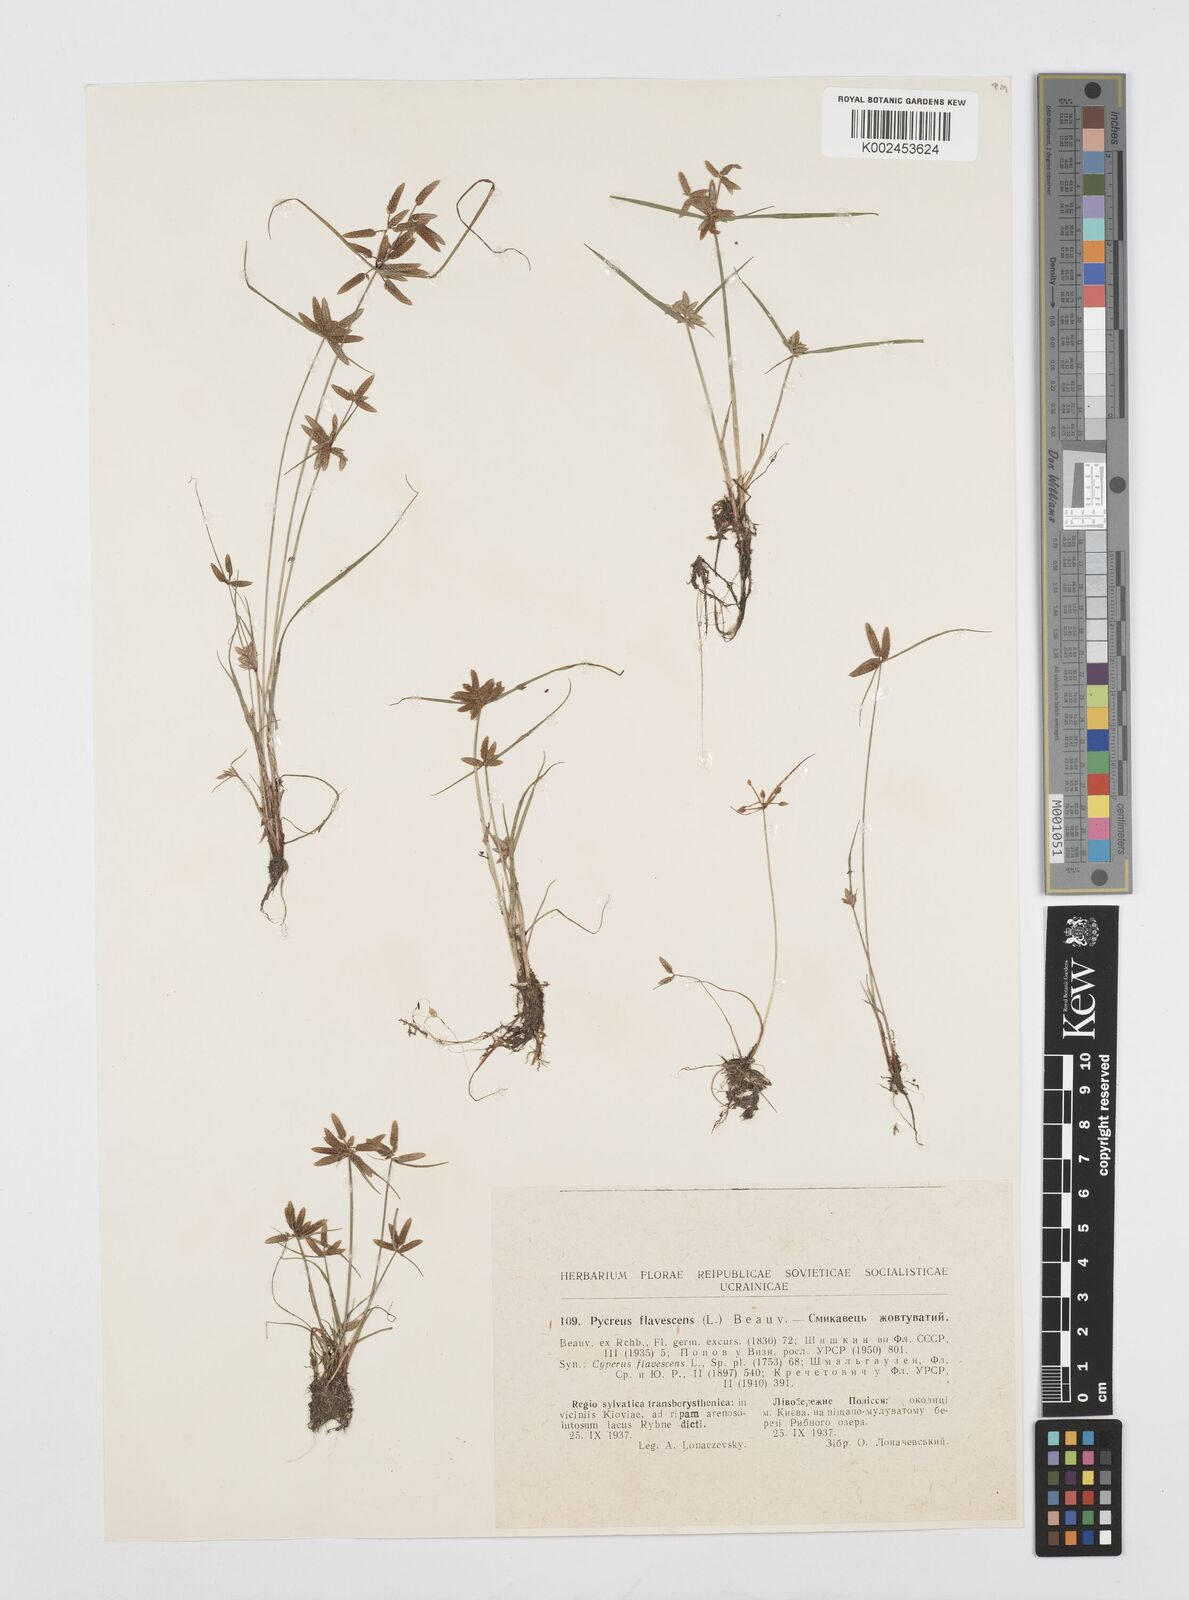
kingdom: Plantae
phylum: Tracheophyta
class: Liliopsida
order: Poales
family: Cyperaceae
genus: Cyperus
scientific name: Cyperus flavescens
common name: Yellow galingale
